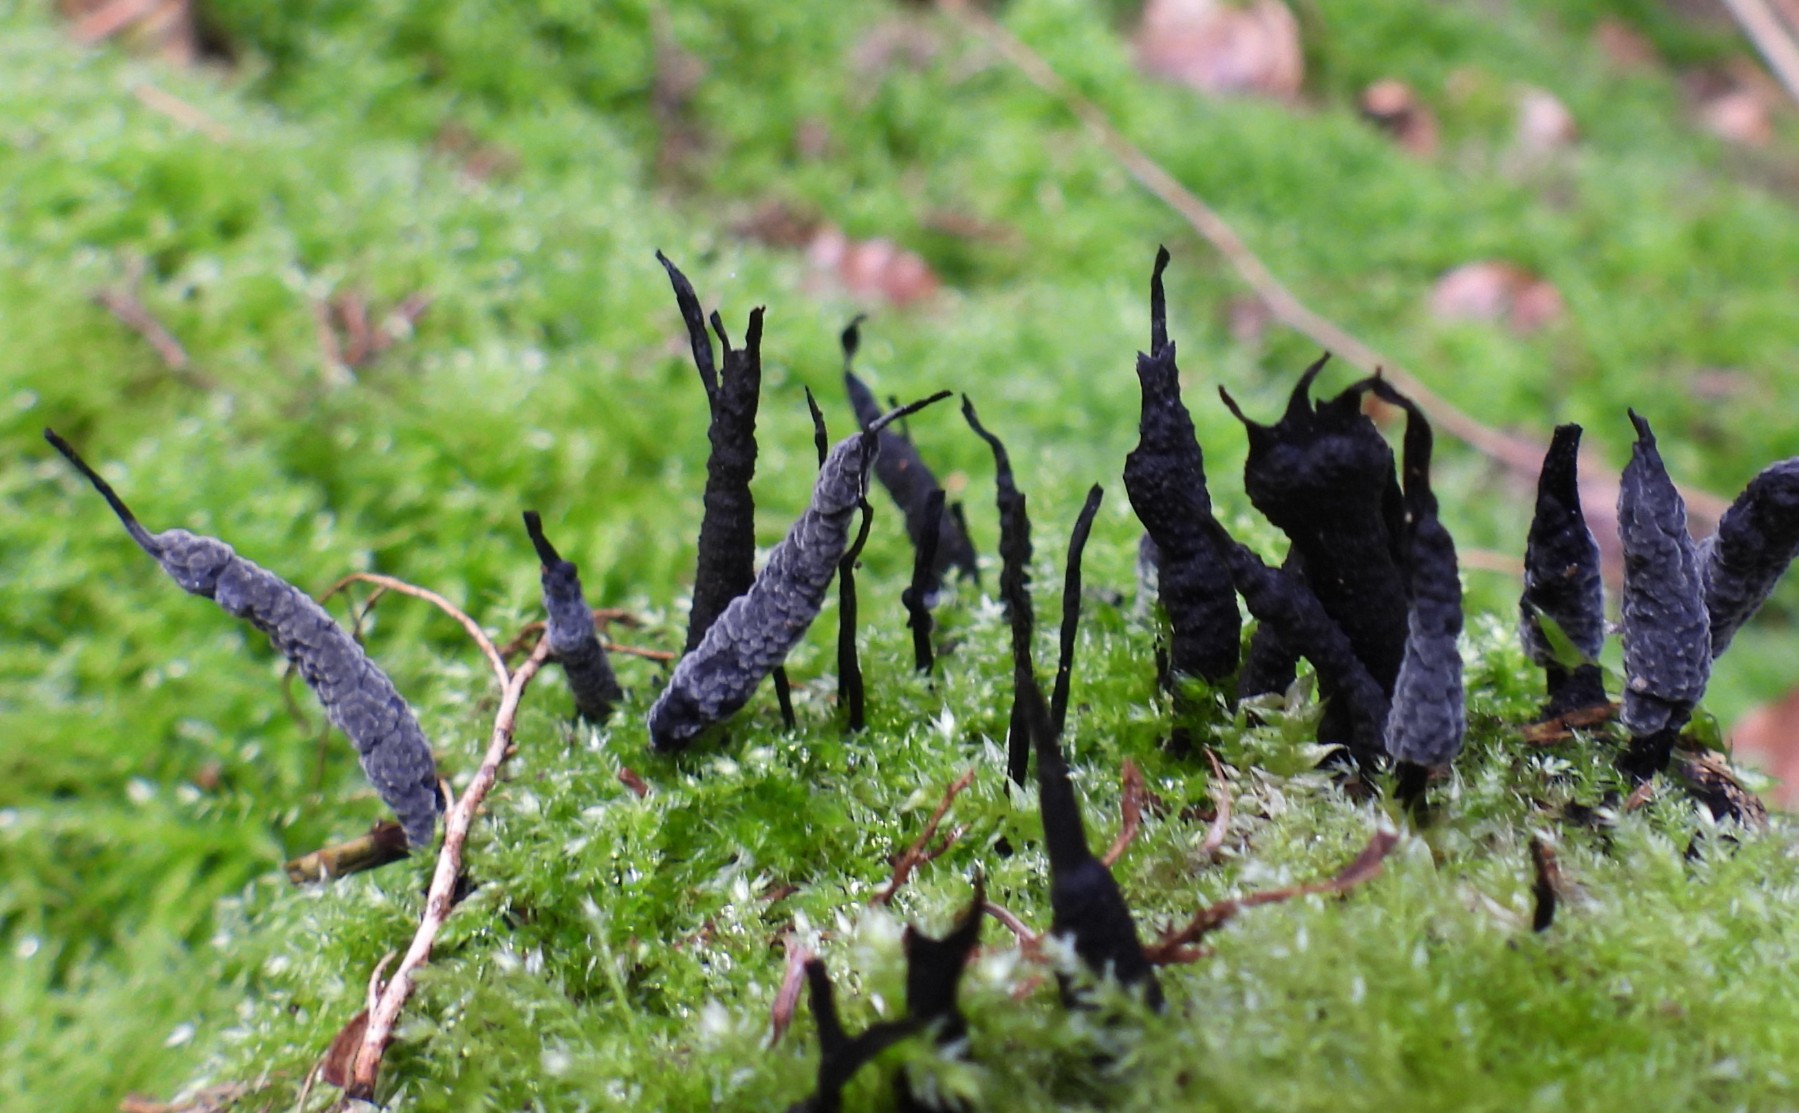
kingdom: Fungi
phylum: Ascomycota
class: Sordariomycetes
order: Xylariales
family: Xylariaceae
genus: Xylaria
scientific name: Xylaria hypoxylon
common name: grenet stødsvamp
